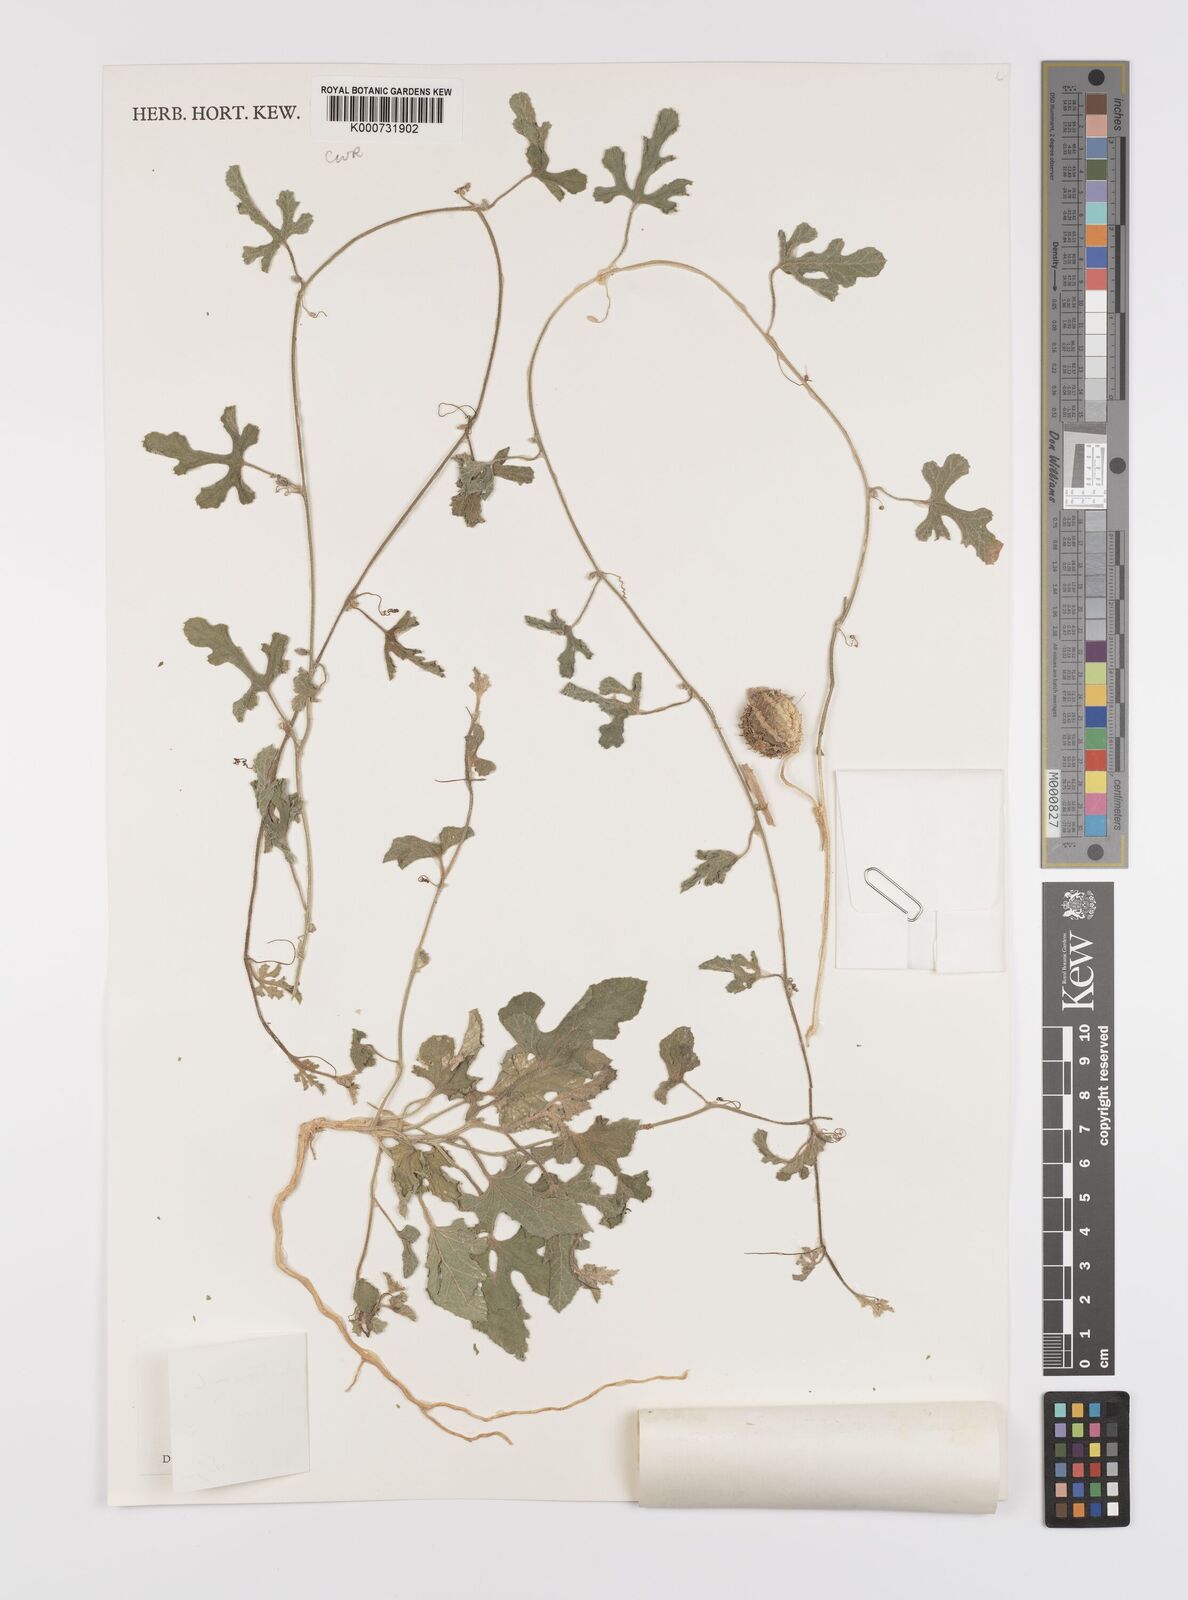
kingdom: Plantae
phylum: Tracheophyta
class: Magnoliopsida
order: Cucurbitales
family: Cucurbitaceae
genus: Cucumis
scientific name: Cucumis prophetarum
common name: Wild cucumber
